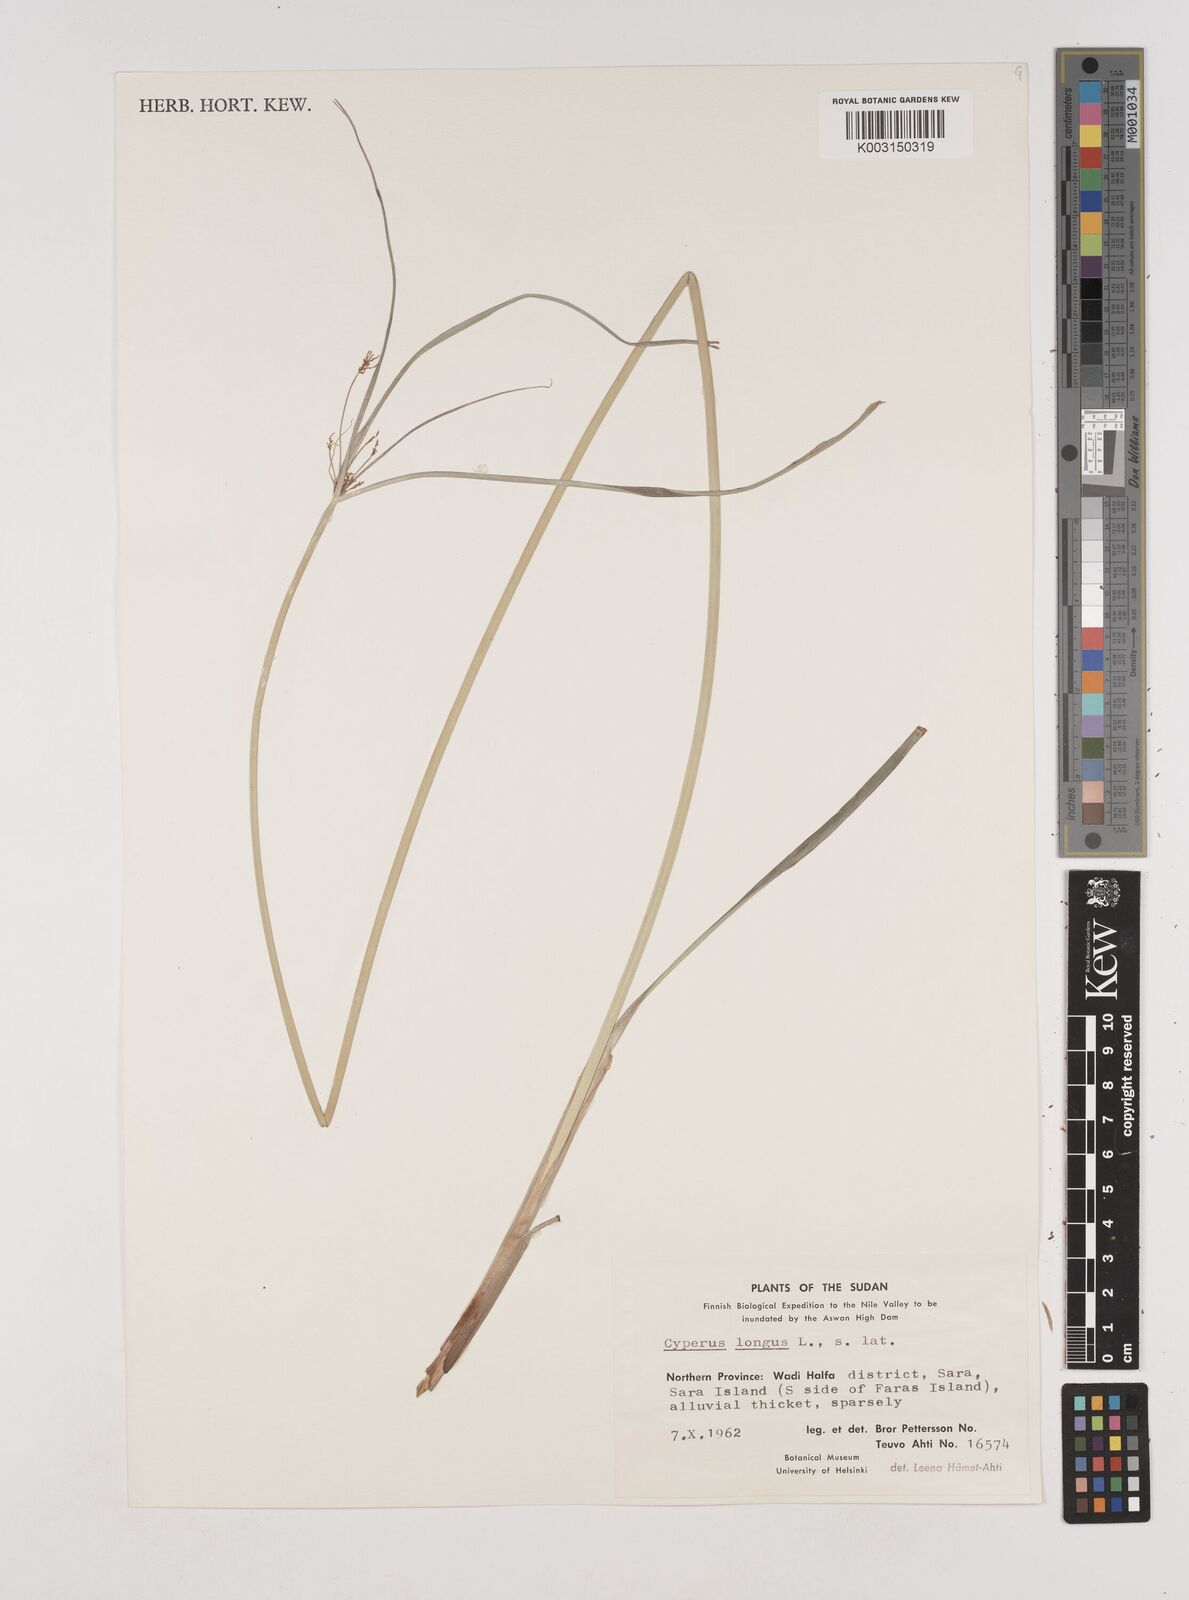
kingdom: Plantae
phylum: Tracheophyta
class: Liliopsida
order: Poales
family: Cyperaceae
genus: Cyperus
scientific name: Cyperus schimperianus
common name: Schimper flatsedge
